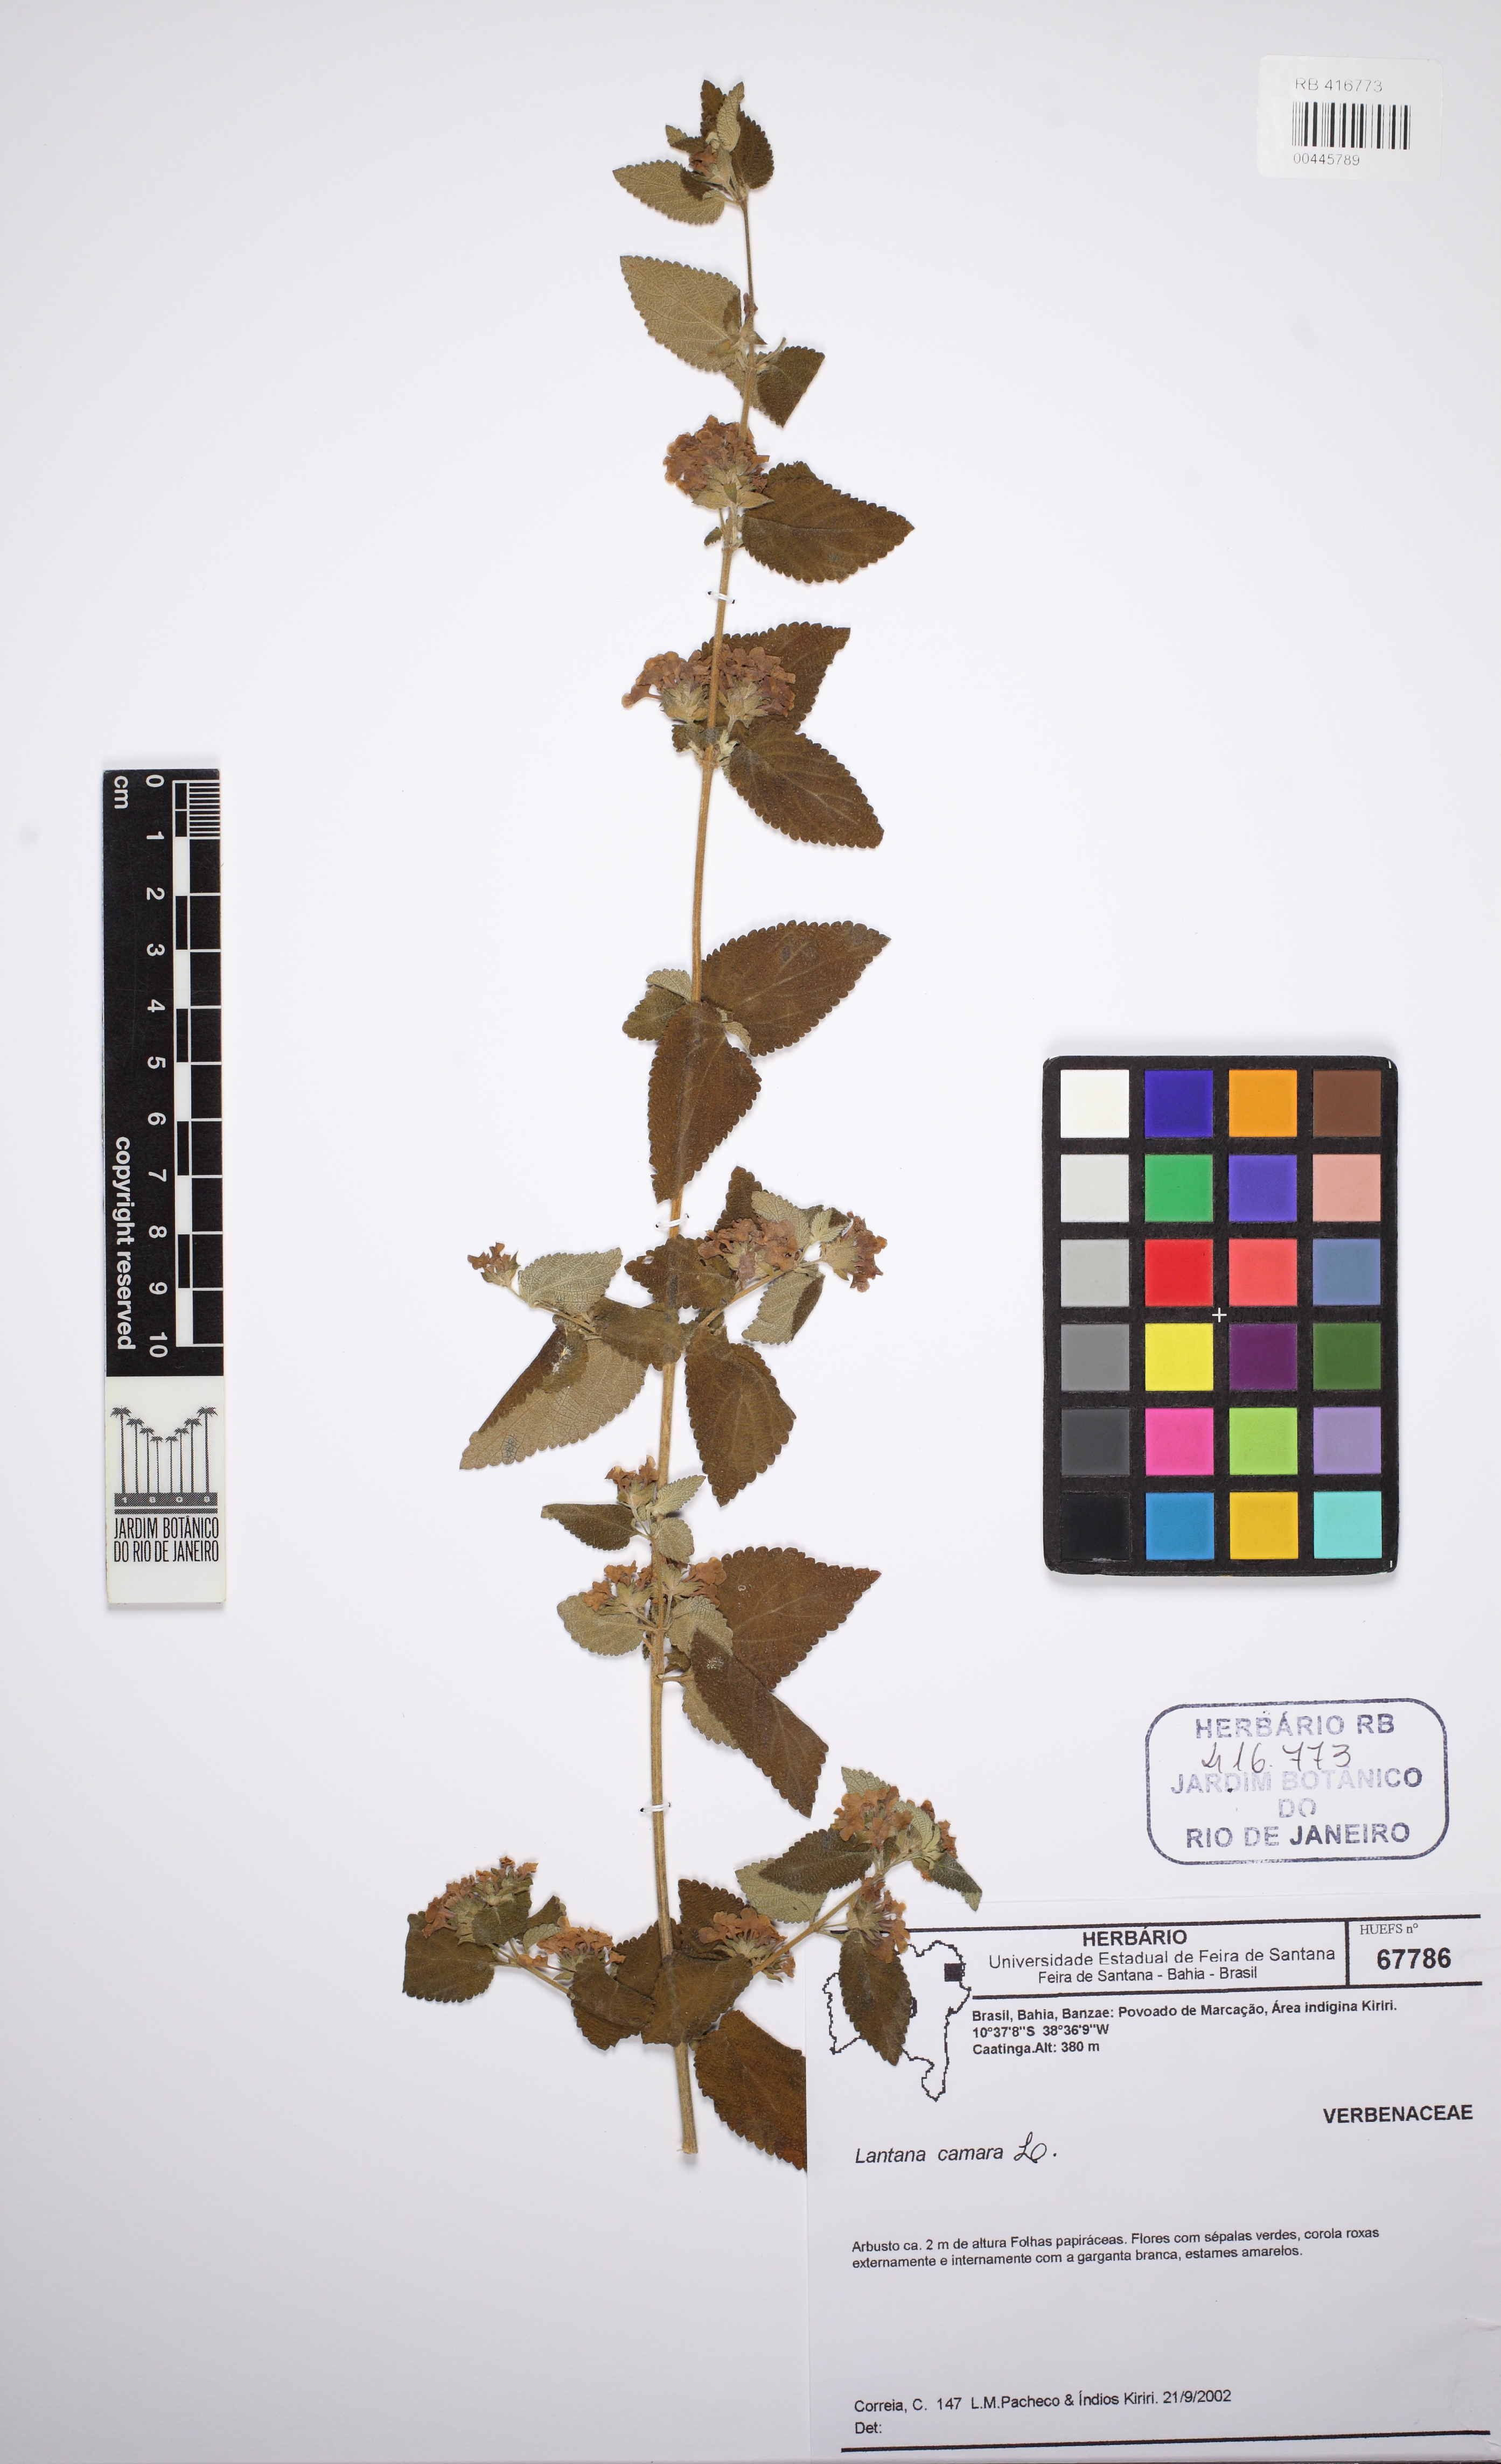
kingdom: Plantae
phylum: Tracheophyta
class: Magnoliopsida
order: Lamiales
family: Verbenaceae
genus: Lantana
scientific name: Lantana camara
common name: Lantana
